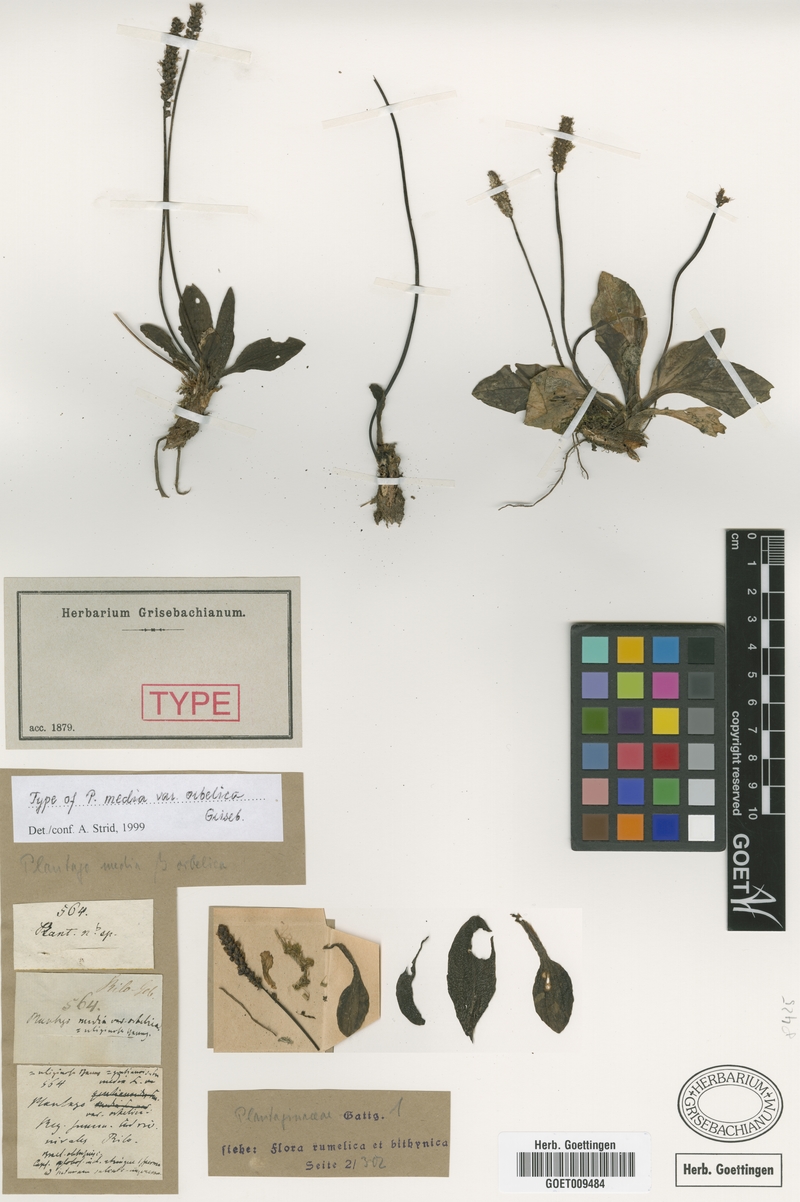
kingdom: Plantae
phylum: Tracheophyta
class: Magnoliopsida
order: Lamiales
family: Plantaginaceae
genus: Plantago
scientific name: Plantago gentianoides
